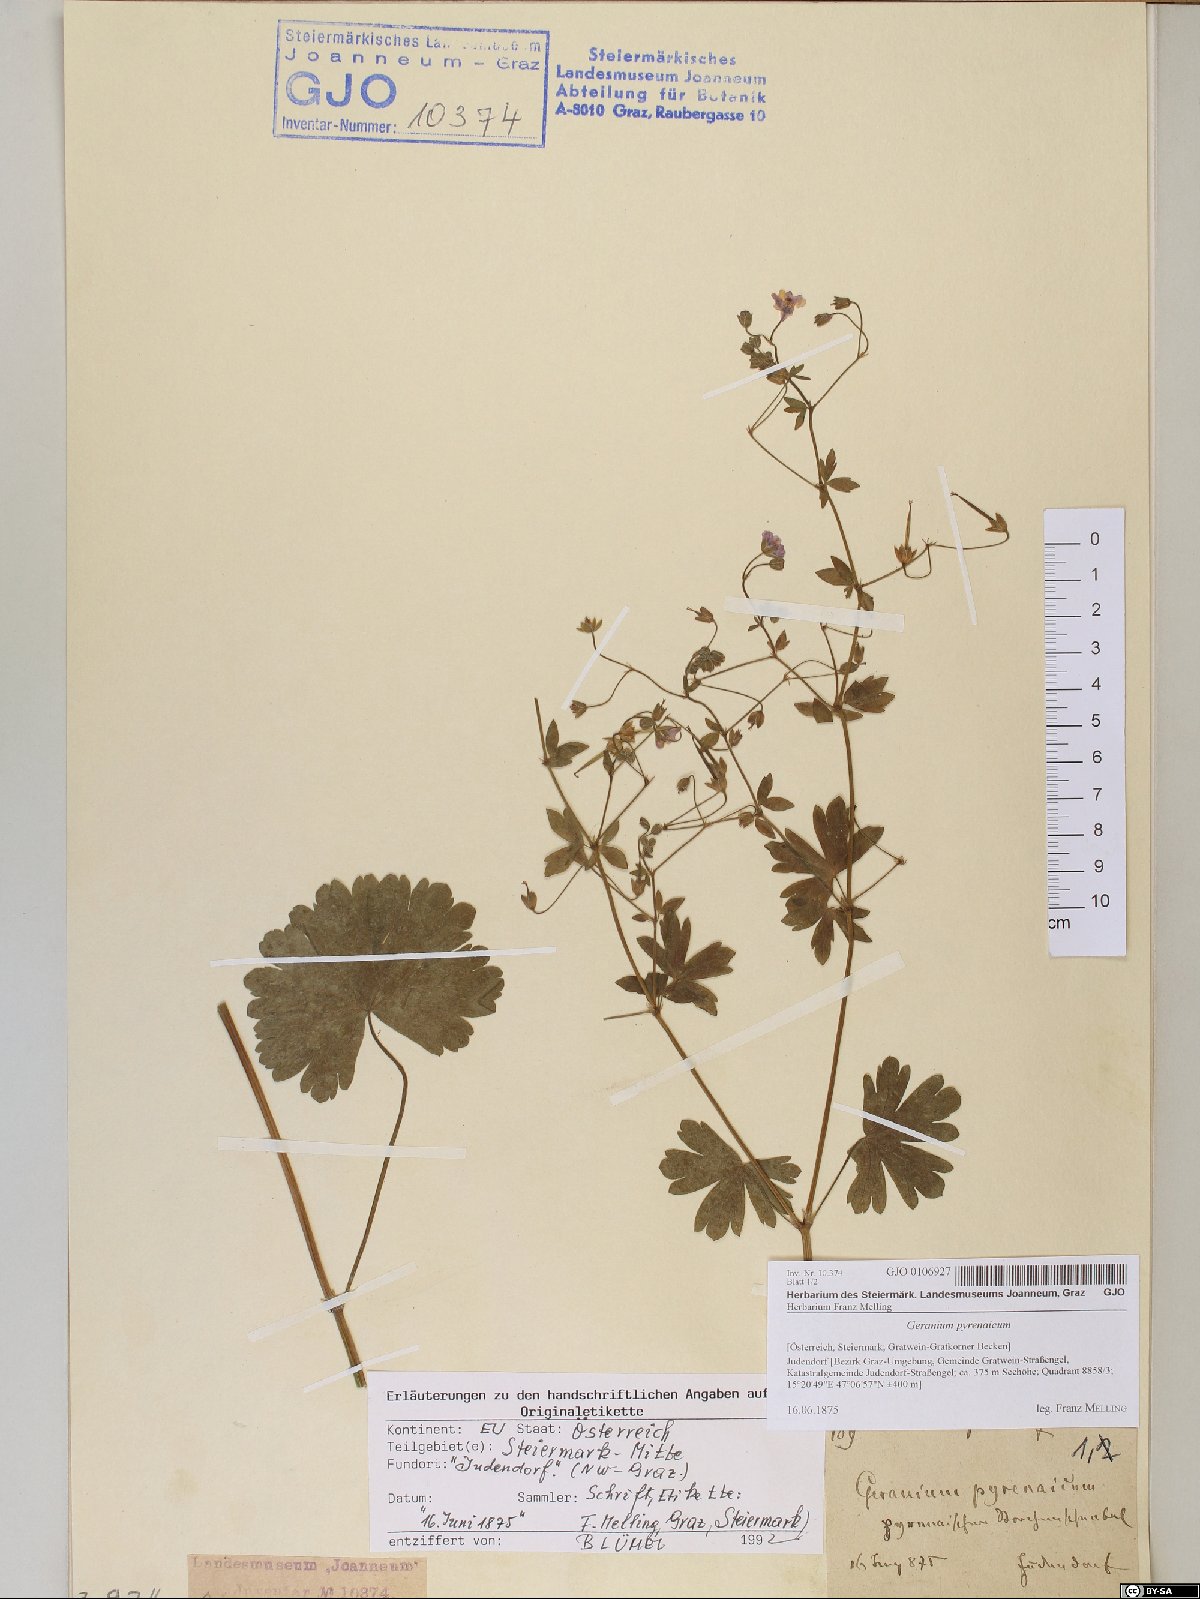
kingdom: Plantae
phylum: Tracheophyta
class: Magnoliopsida
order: Geraniales
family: Geraniaceae
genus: Geranium
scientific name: Geranium pyrenaicum
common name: Hedgerow crane's-bill
